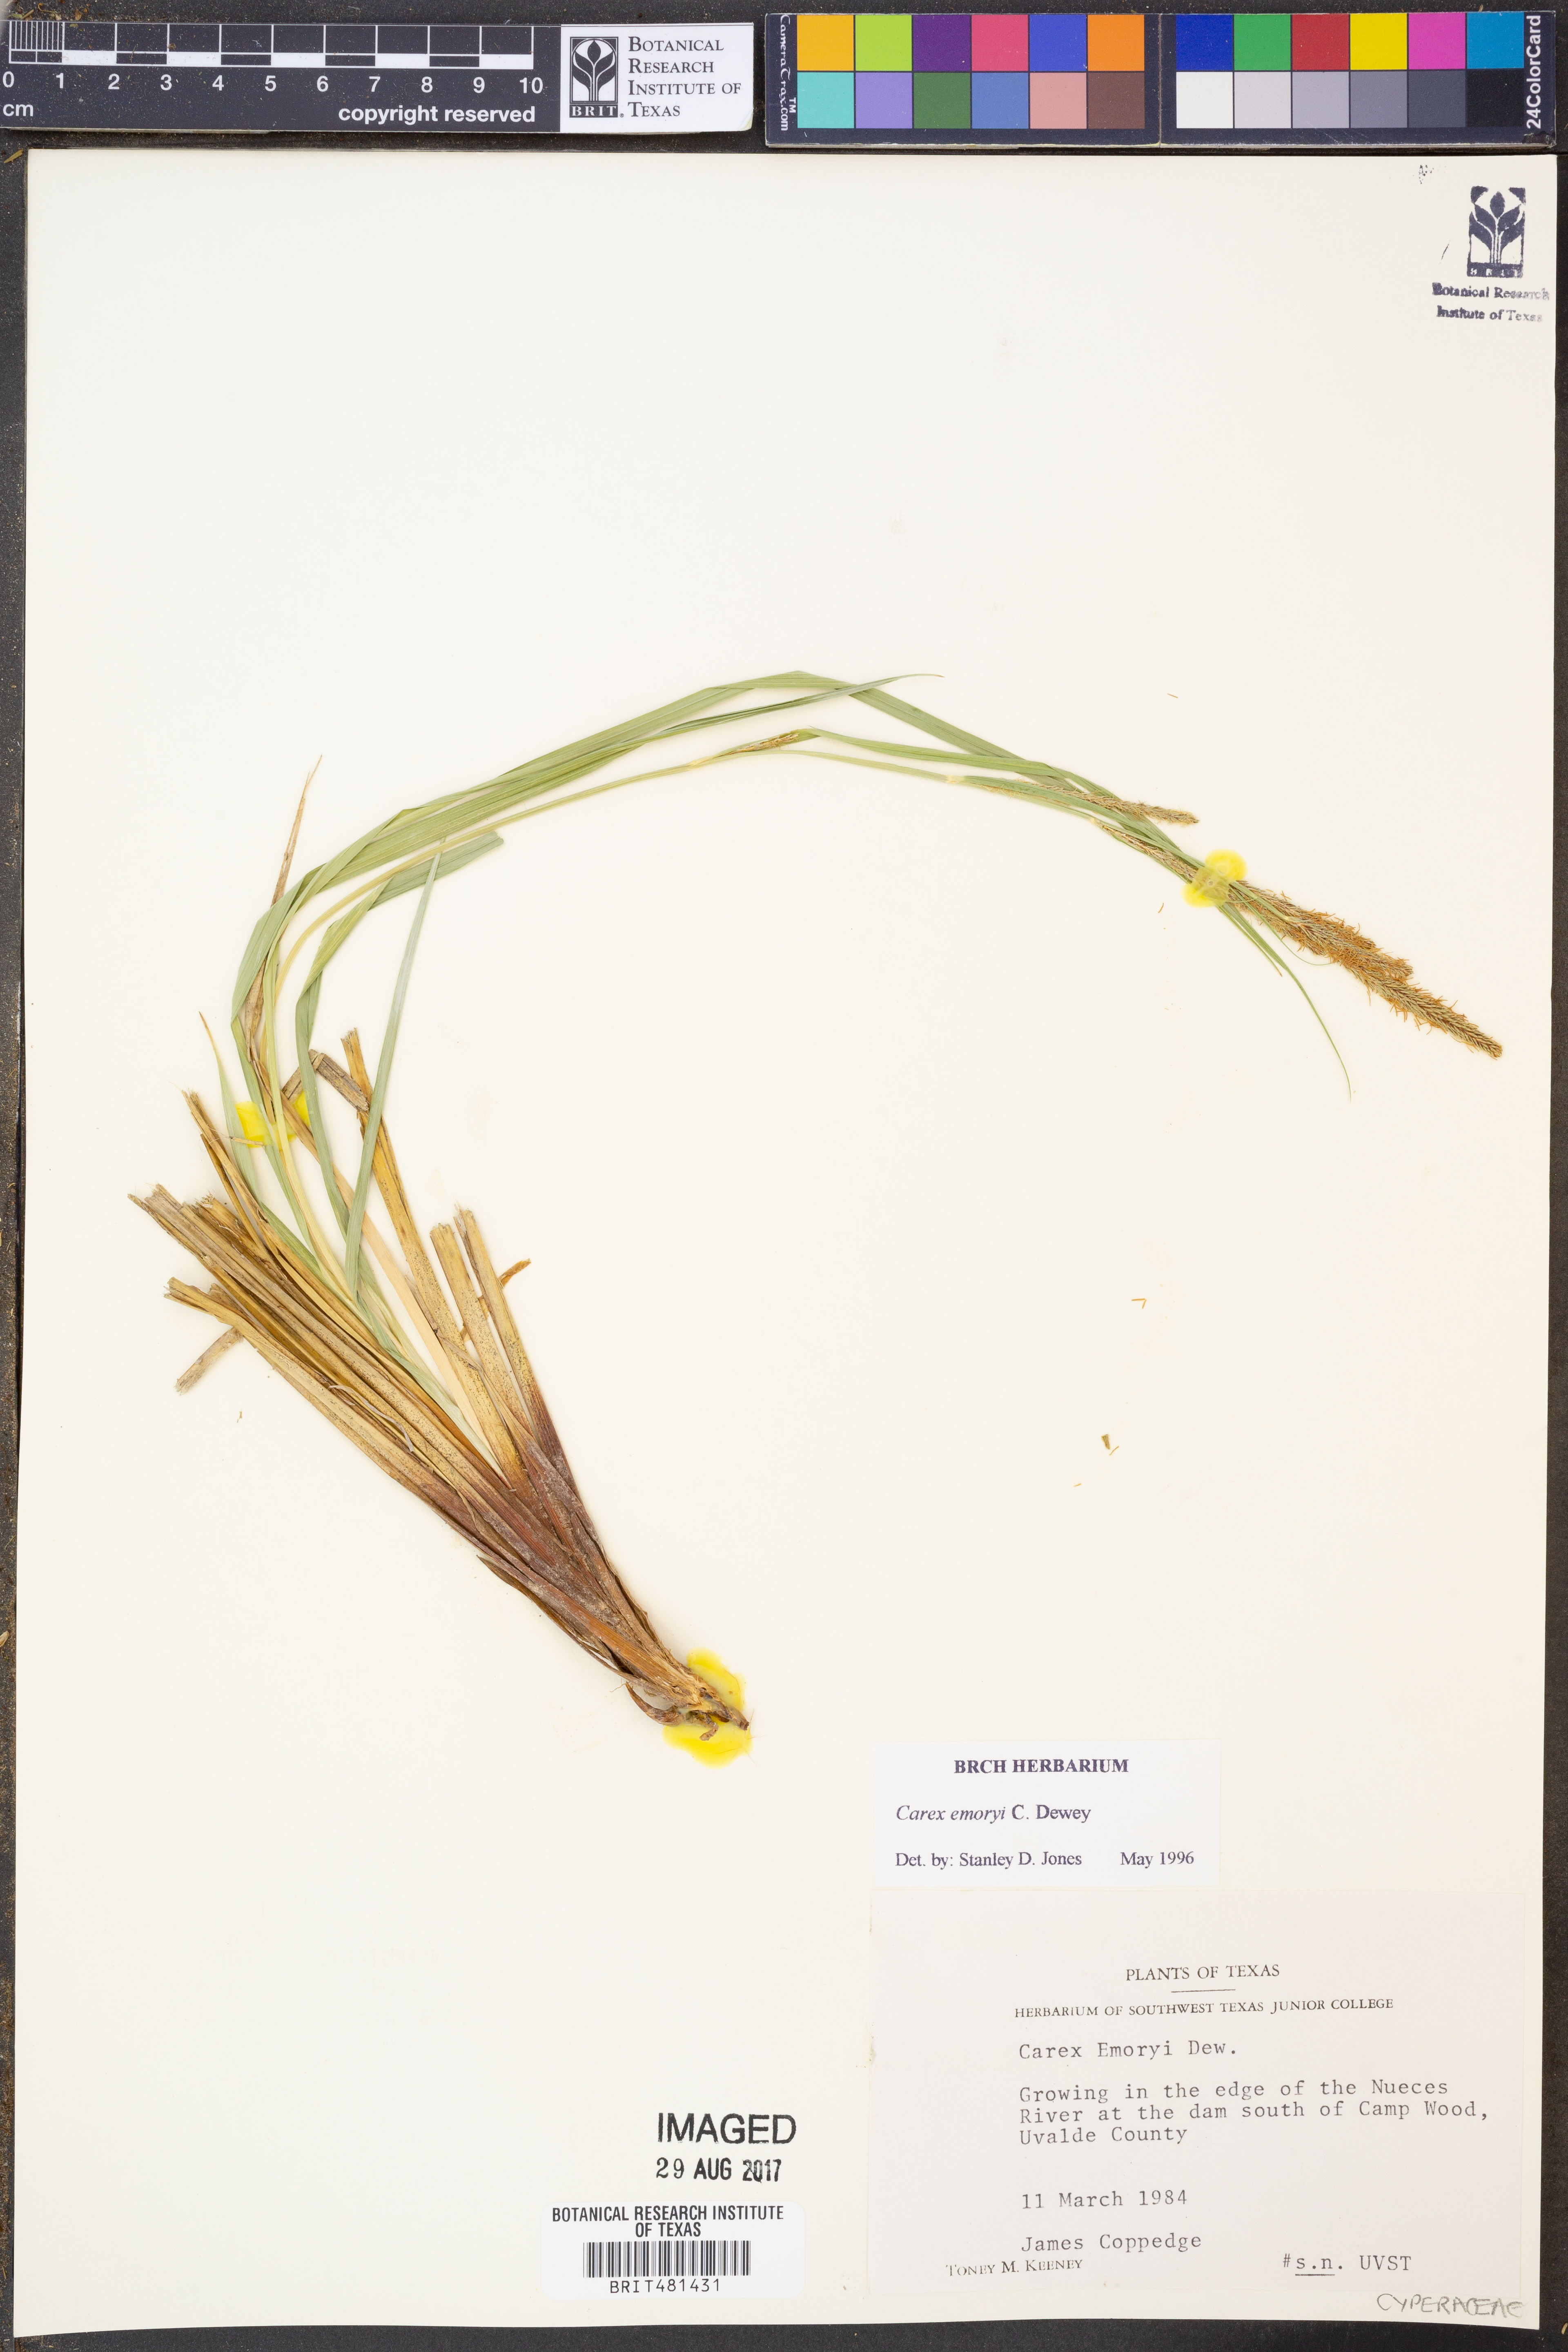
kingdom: Plantae
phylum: Tracheophyta
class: Liliopsida
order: Poales
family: Cyperaceae
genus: Carex
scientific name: Carex emoryi
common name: Emory's sedge
